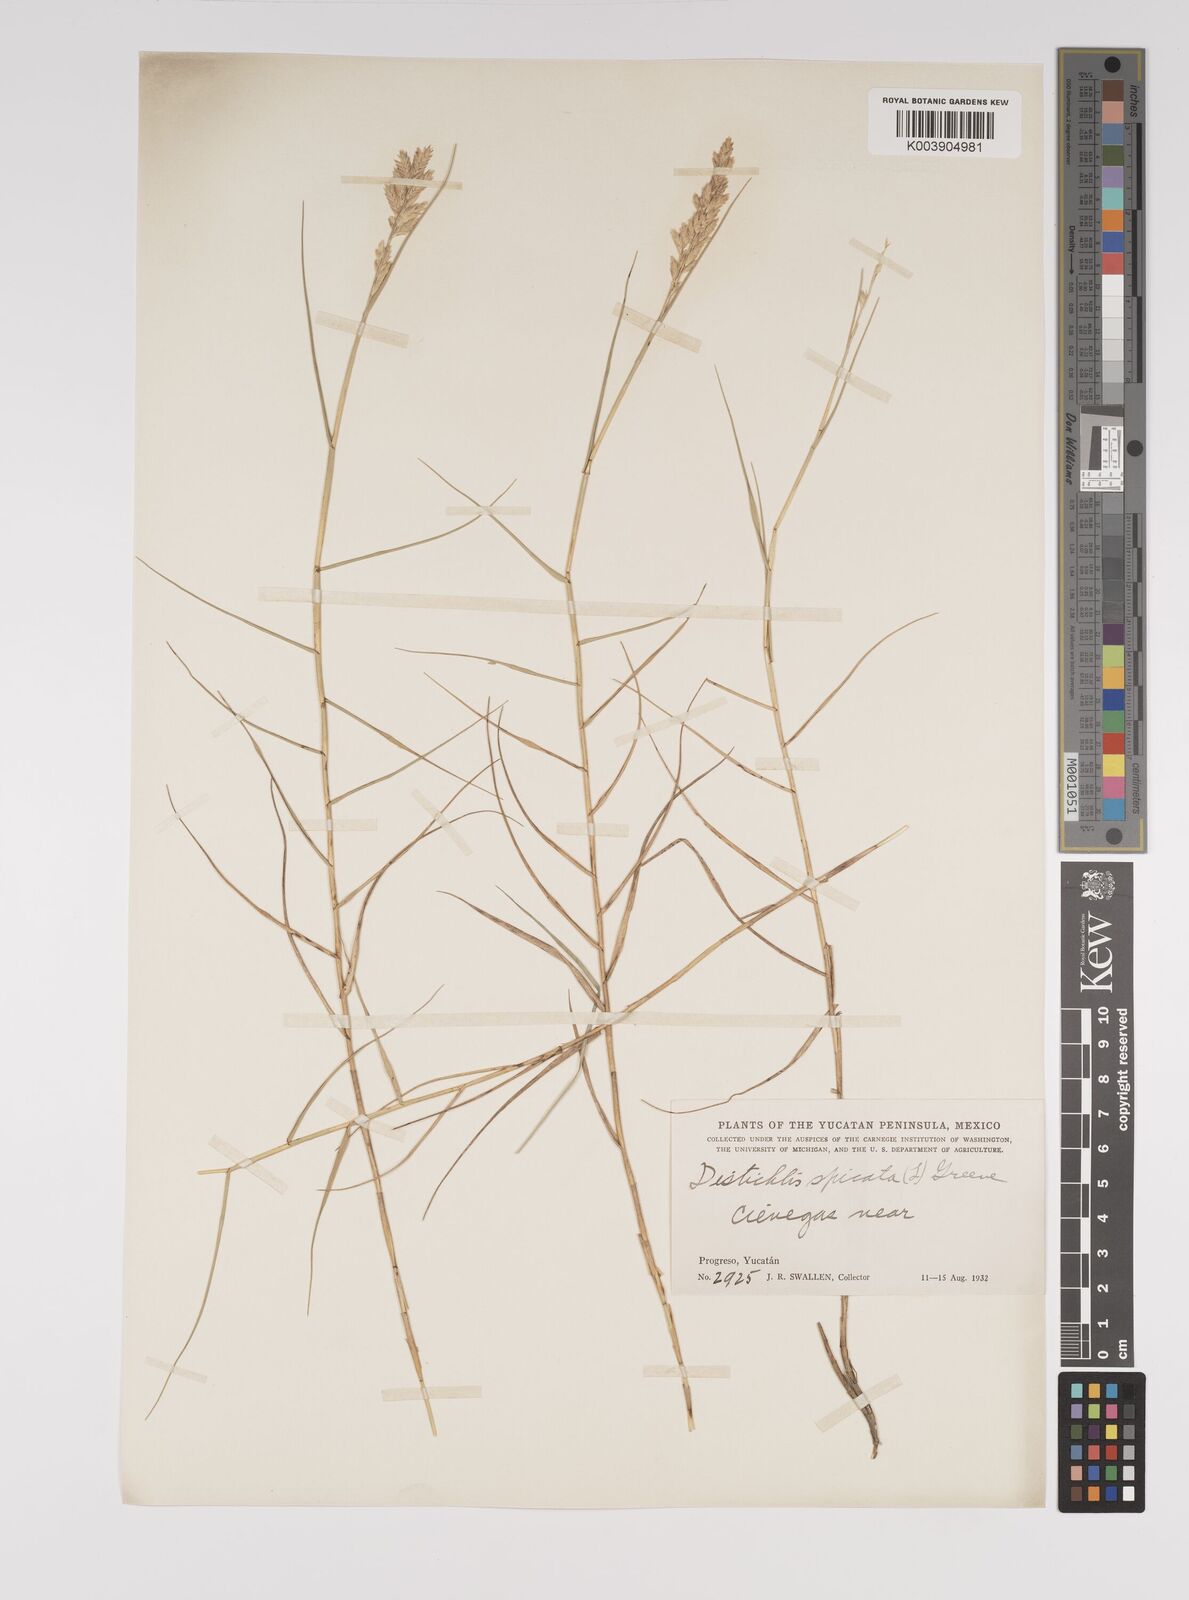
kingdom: Plantae
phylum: Tracheophyta
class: Liliopsida
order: Poales
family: Poaceae
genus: Distichlis
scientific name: Distichlis spicata
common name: Saltgrass
